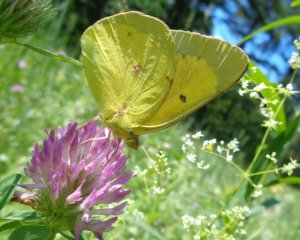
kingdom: Animalia
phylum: Arthropoda
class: Insecta
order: Lepidoptera
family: Pieridae
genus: Colias
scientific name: Colias eurytheme
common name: Orange Sulphur
